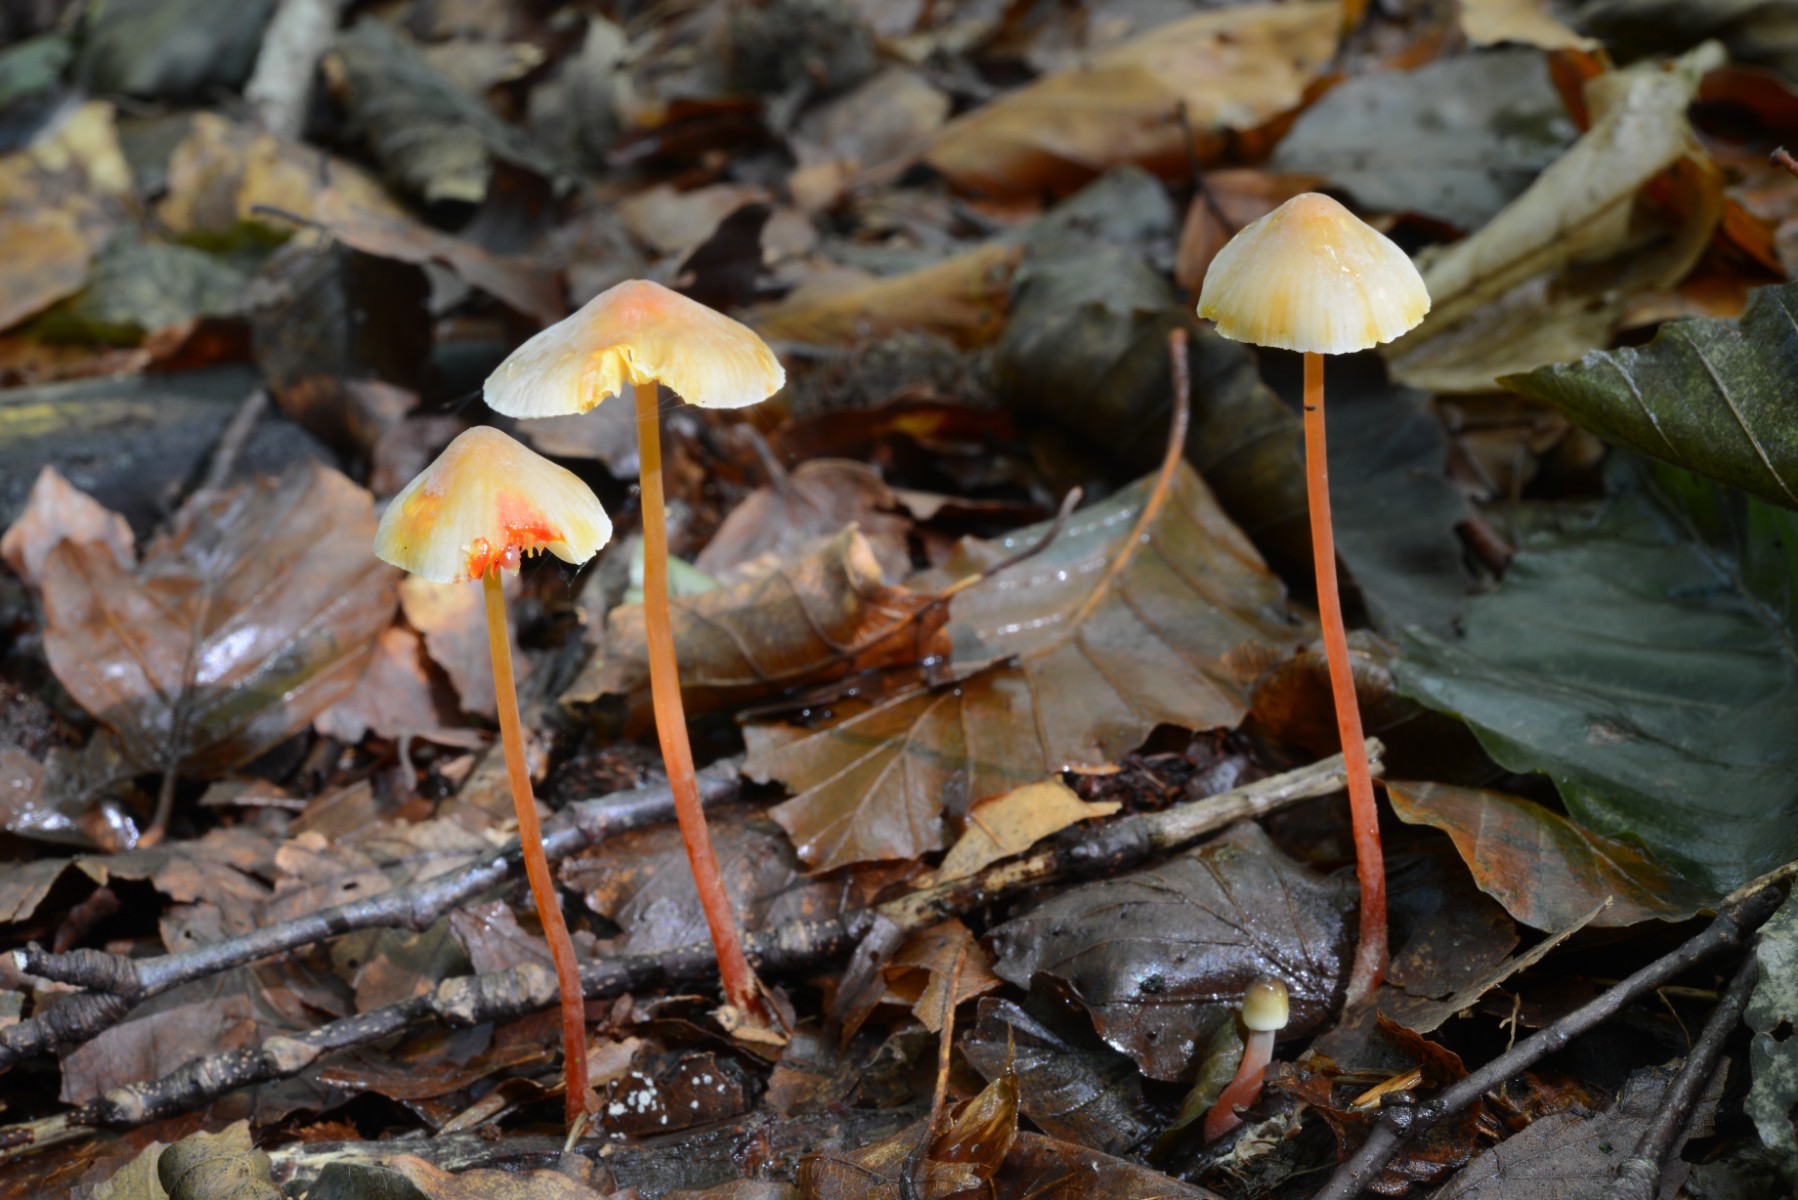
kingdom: Fungi
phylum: Basidiomycota
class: Agaricomycetes
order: Agaricales
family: Mycenaceae
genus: Mycena
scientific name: Mycena crocata
